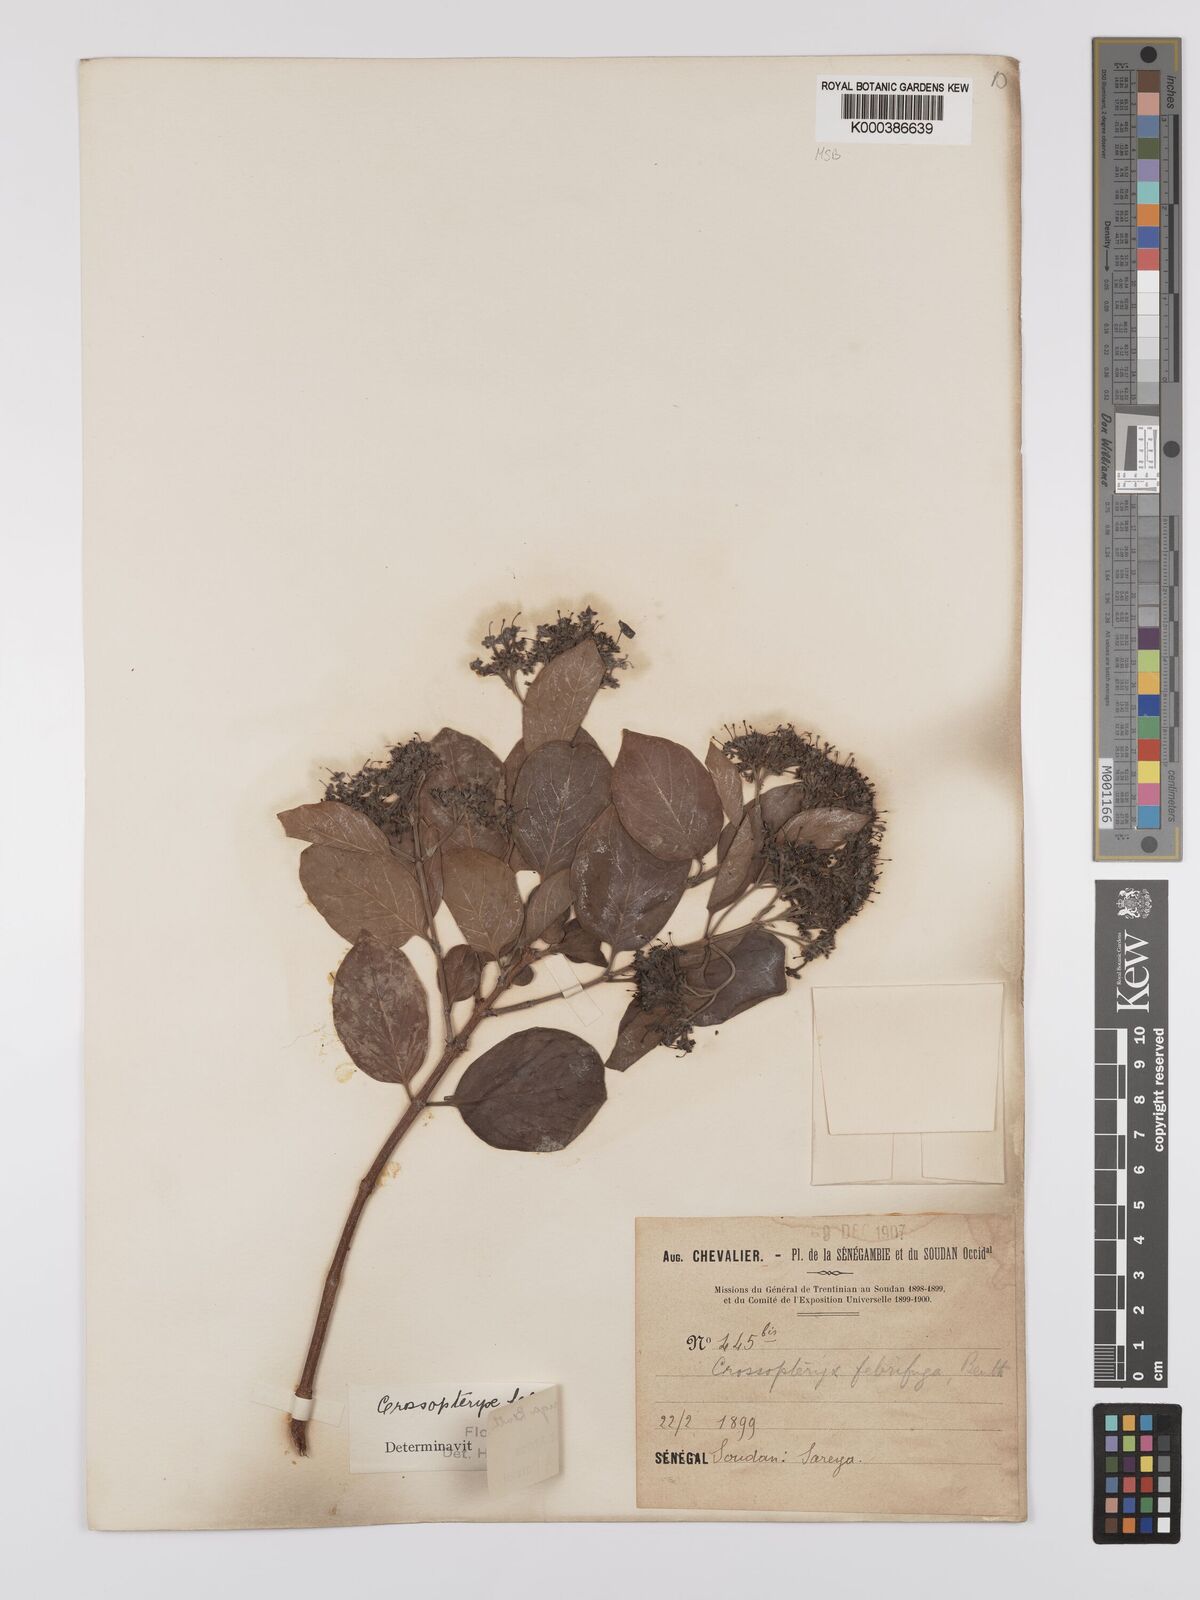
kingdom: Plantae
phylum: Tracheophyta
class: Magnoliopsida
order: Gentianales
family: Rubiaceae
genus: Crossopteryx
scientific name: Crossopteryx febrifuga
